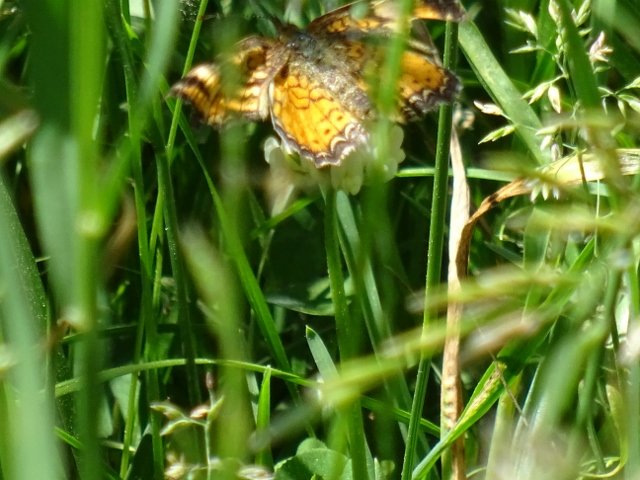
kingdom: Animalia
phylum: Arthropoda
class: Insecta
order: Lepidoptera
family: Nymphalidae
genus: Phyciodes
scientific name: Phyciodes
